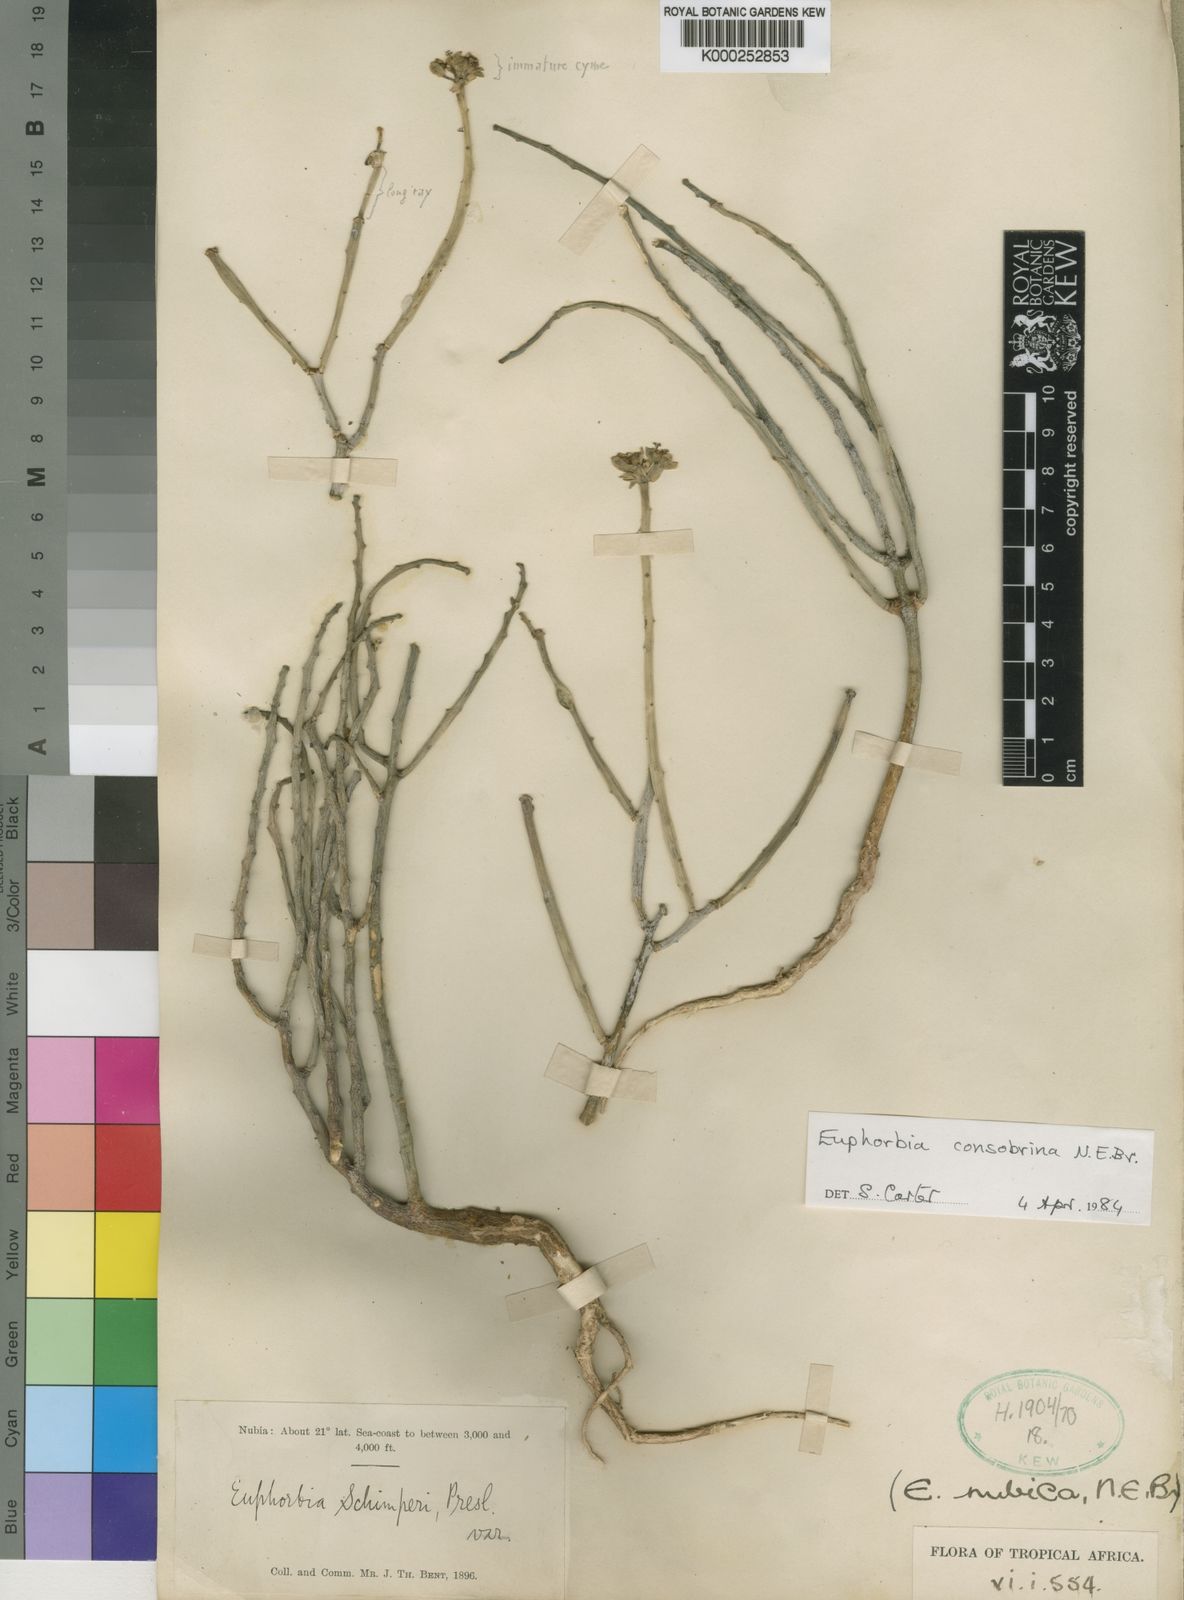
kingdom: Plantae
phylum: Tracheophyta
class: Magnoliopsida
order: Malpighiales
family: Euphorbiaceae
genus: Euphorbia
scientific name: Euphorbia nubica
